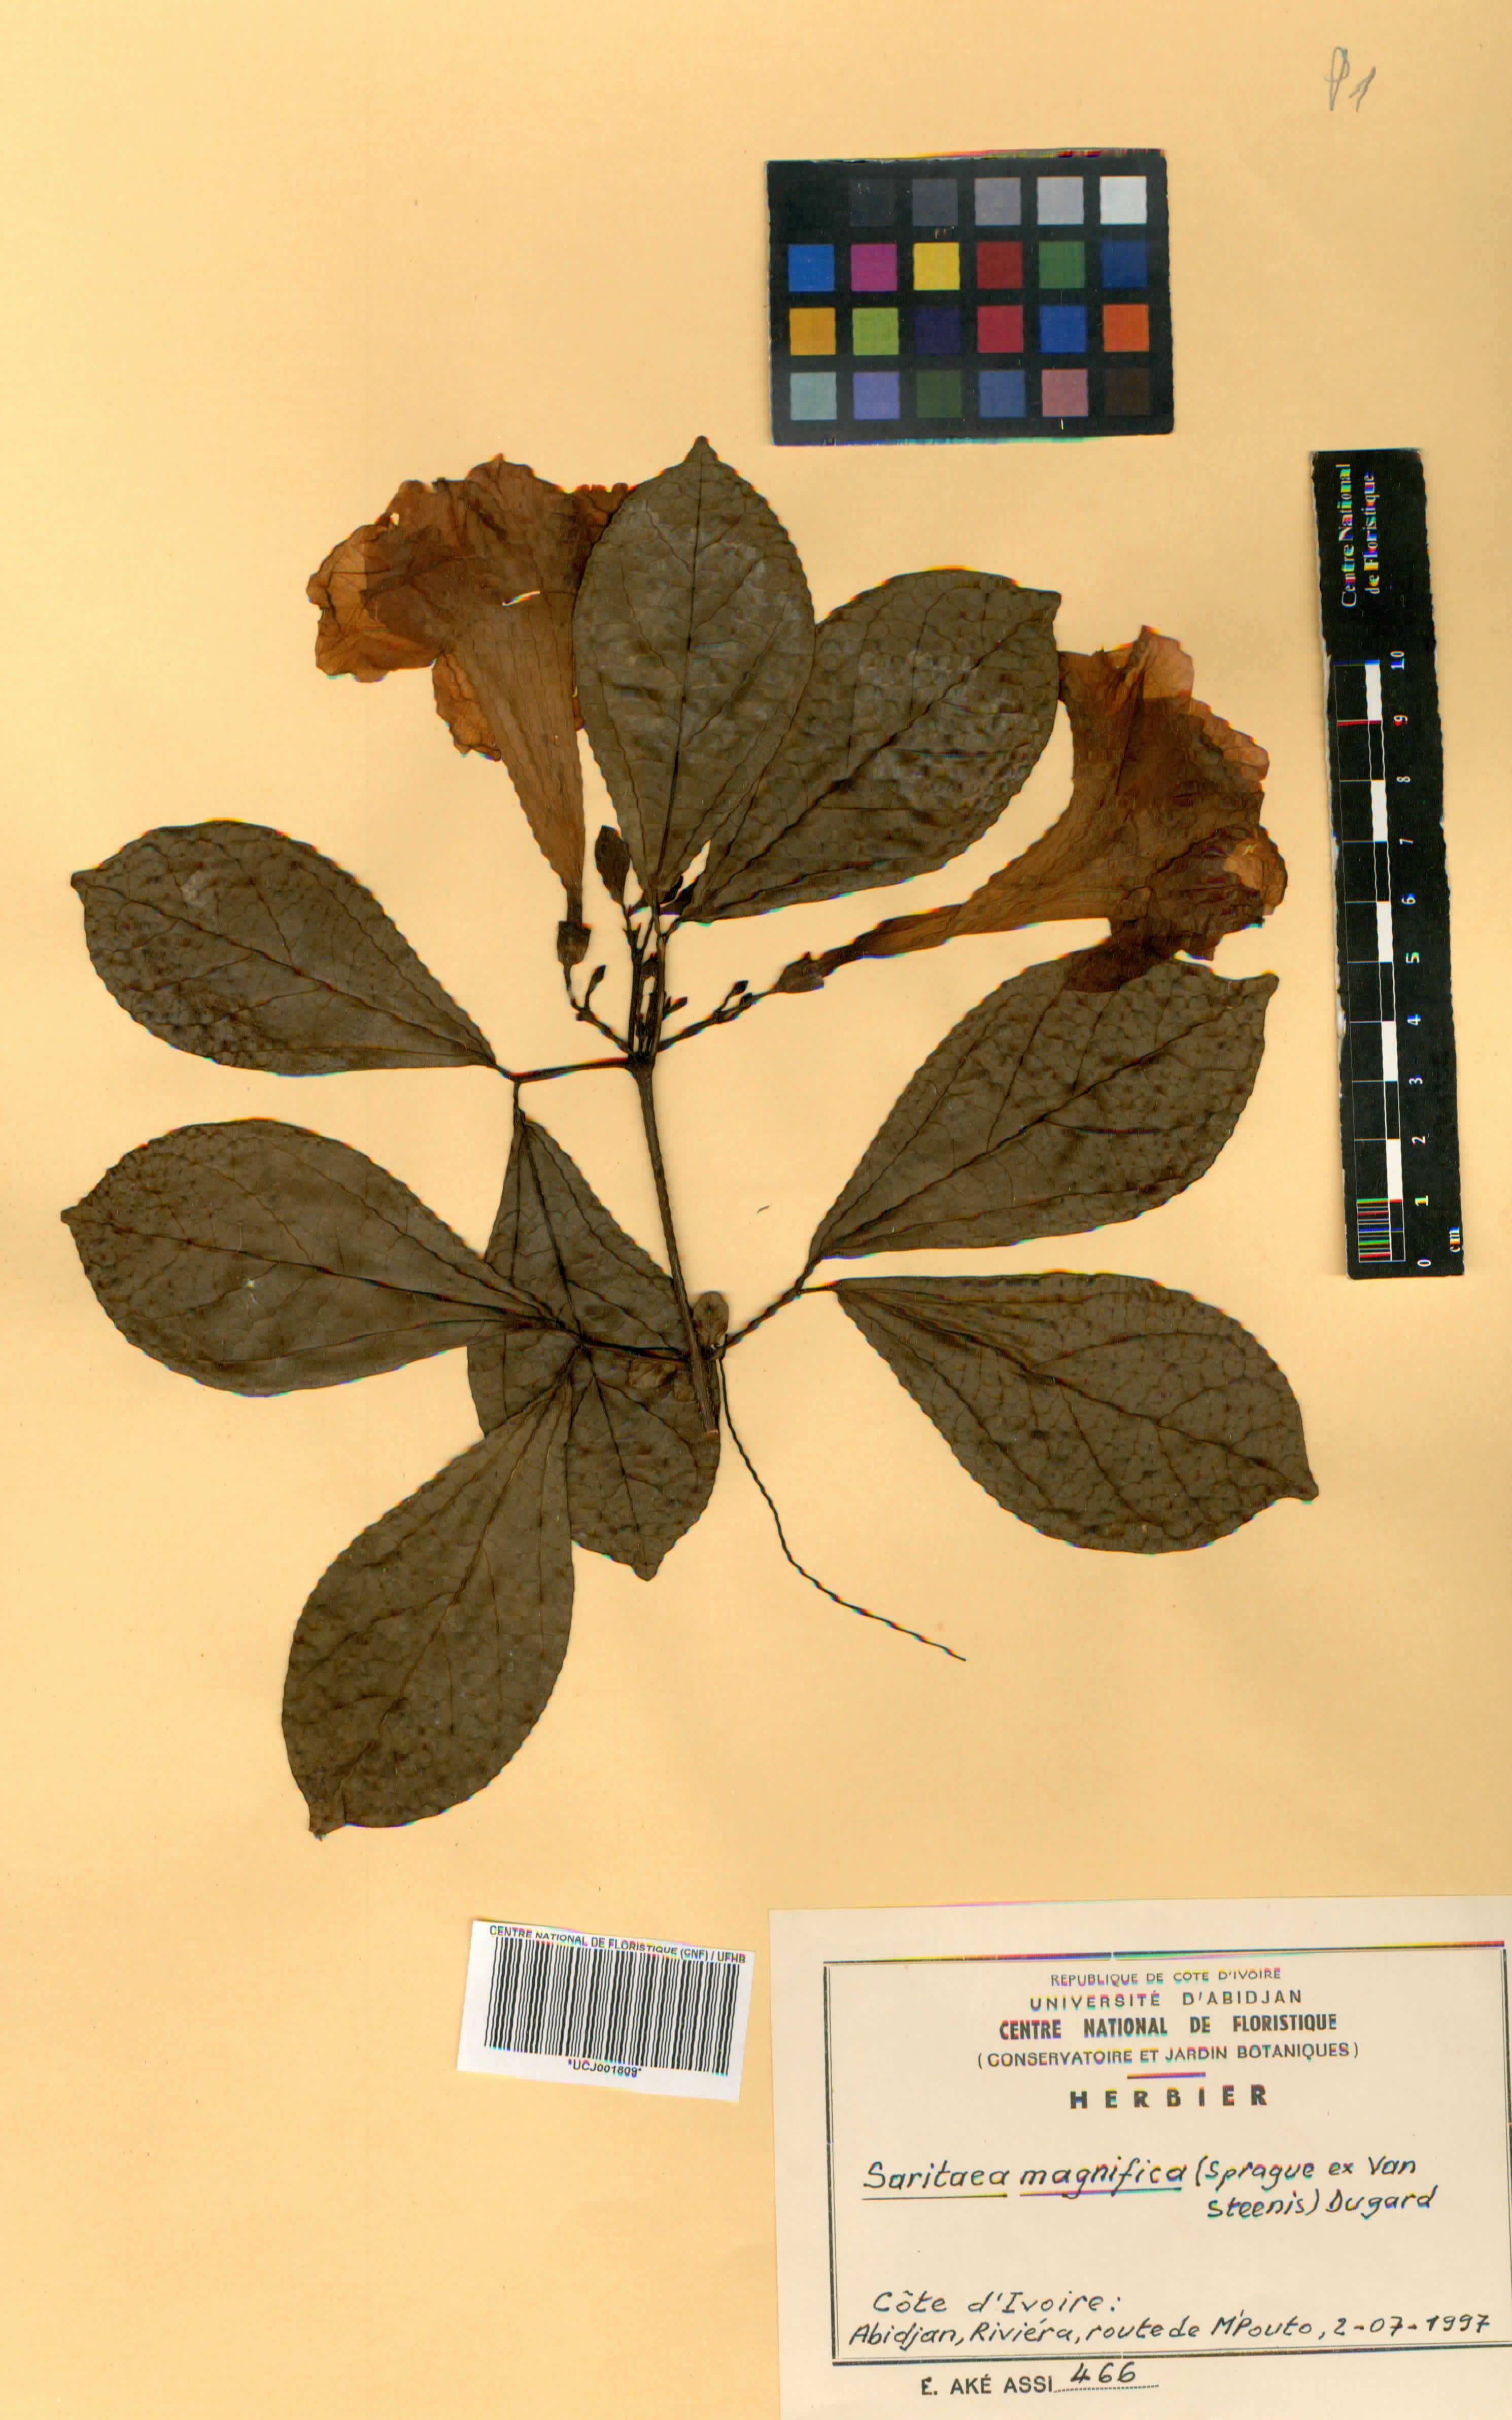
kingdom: Plantae
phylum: Tracheophyta
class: Magnoliopsida
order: Lamiales
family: Bignoniaceae
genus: Bignonia
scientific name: Bignonia magnifica
